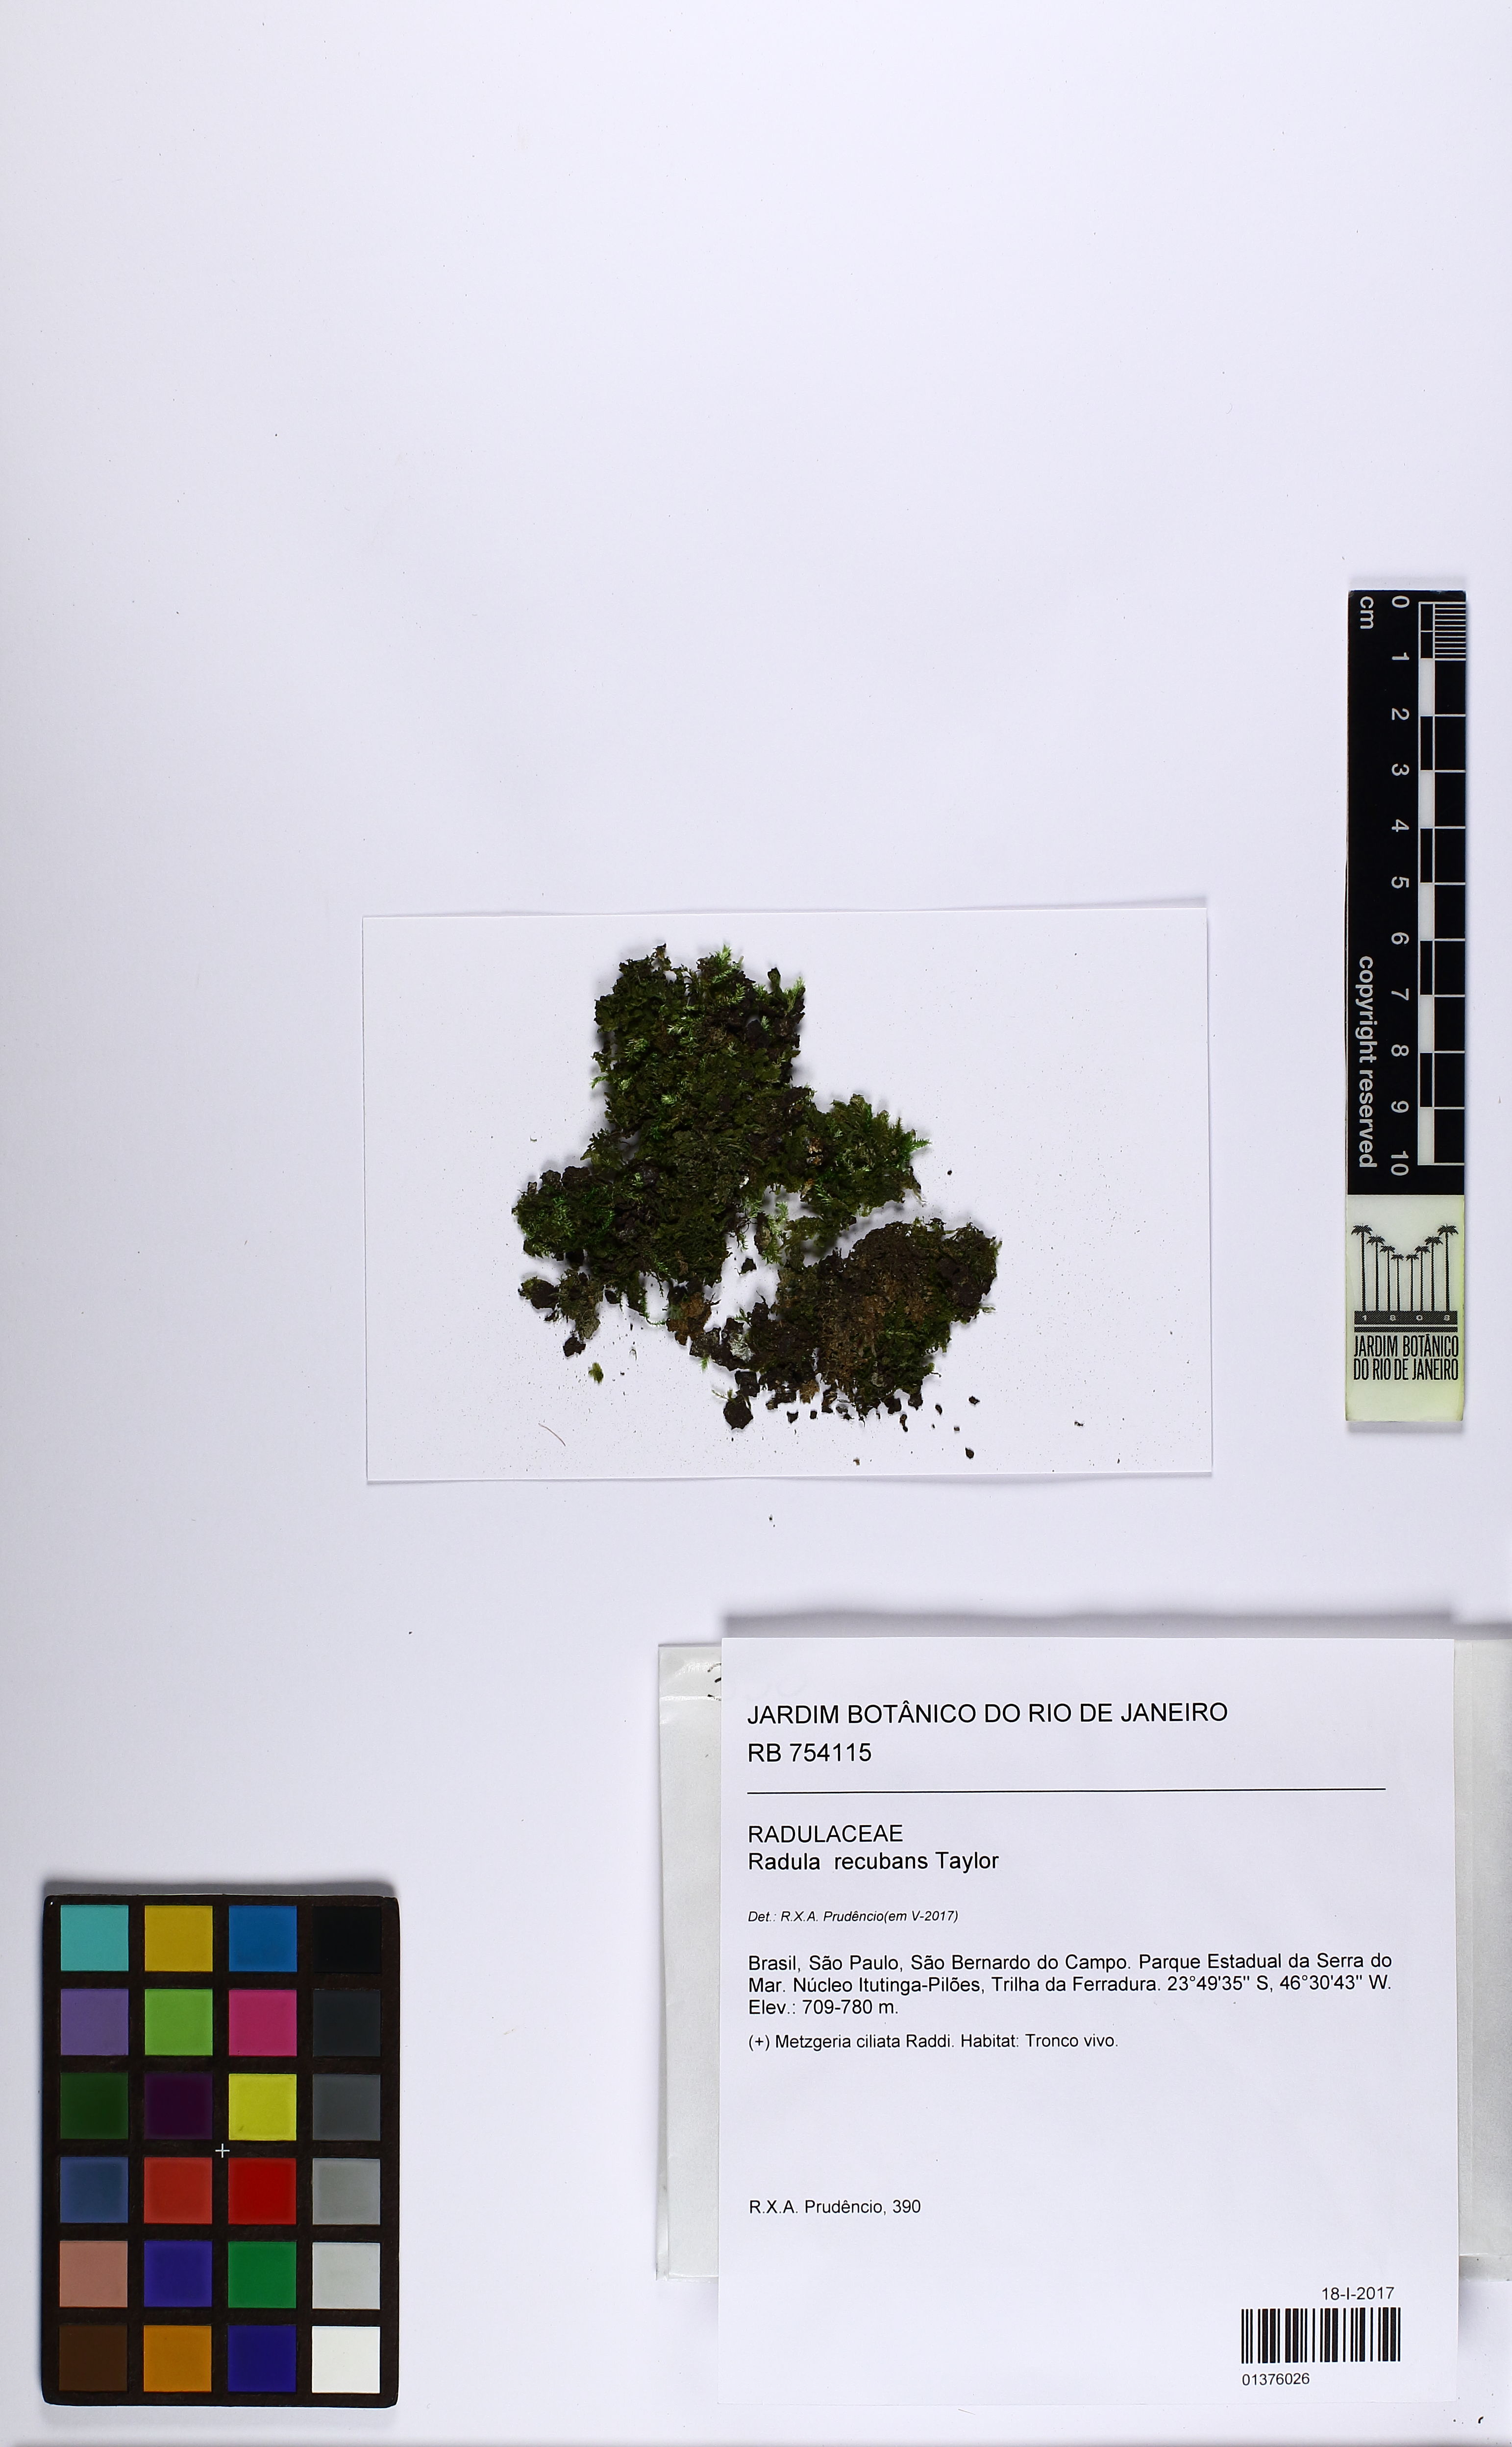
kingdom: Plantae
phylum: Marchantiophyta
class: Jungermanniopsida
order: Porellales
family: Radulaceae
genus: Radula
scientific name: Radula recubans
